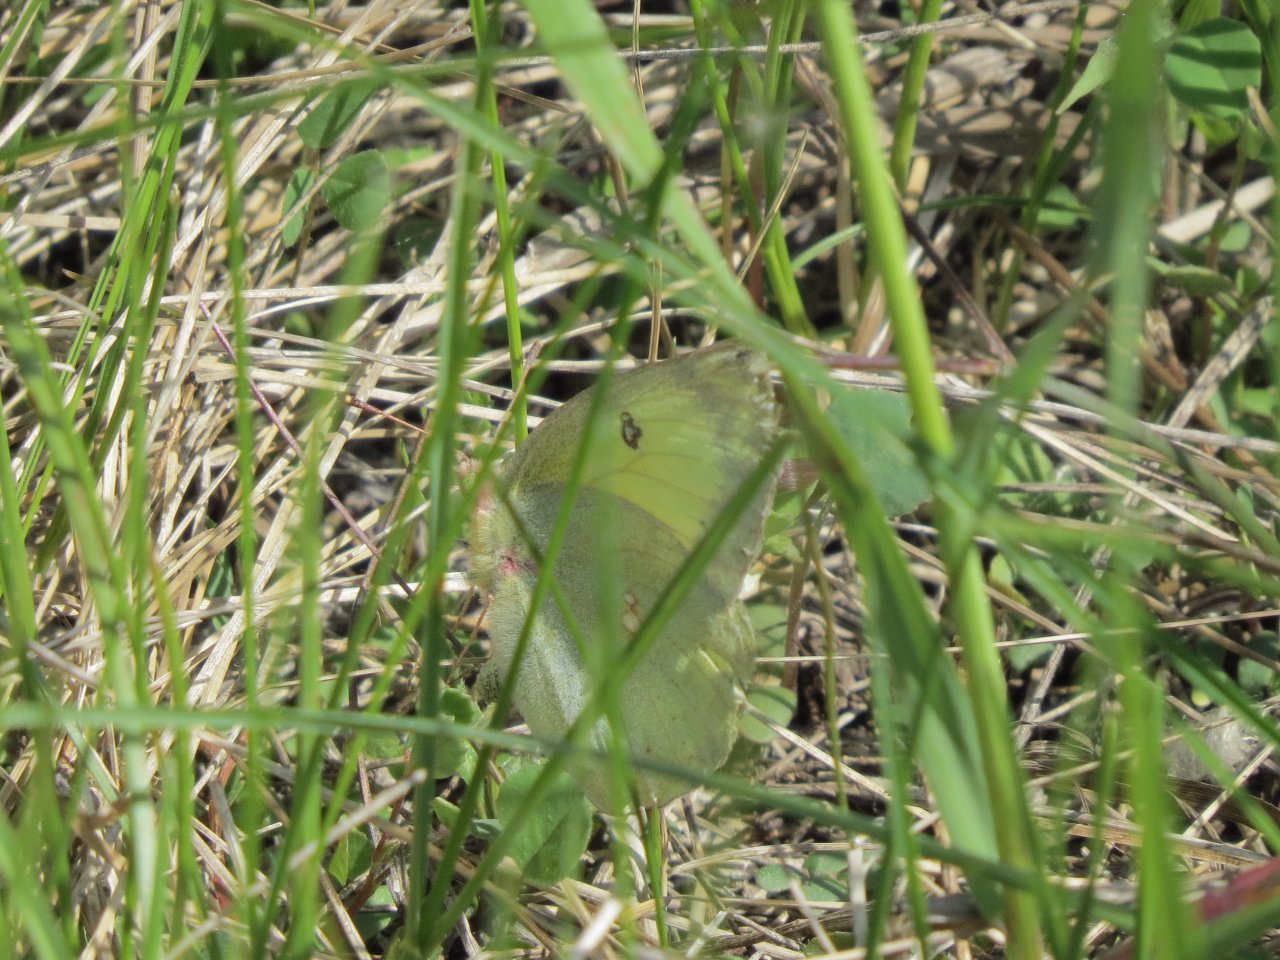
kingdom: Animalia
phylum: Arthropoda
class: Insecta
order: Lepidoptera
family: Pieridae
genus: Colias
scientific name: Colias philodice
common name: Clouded Sulphur
